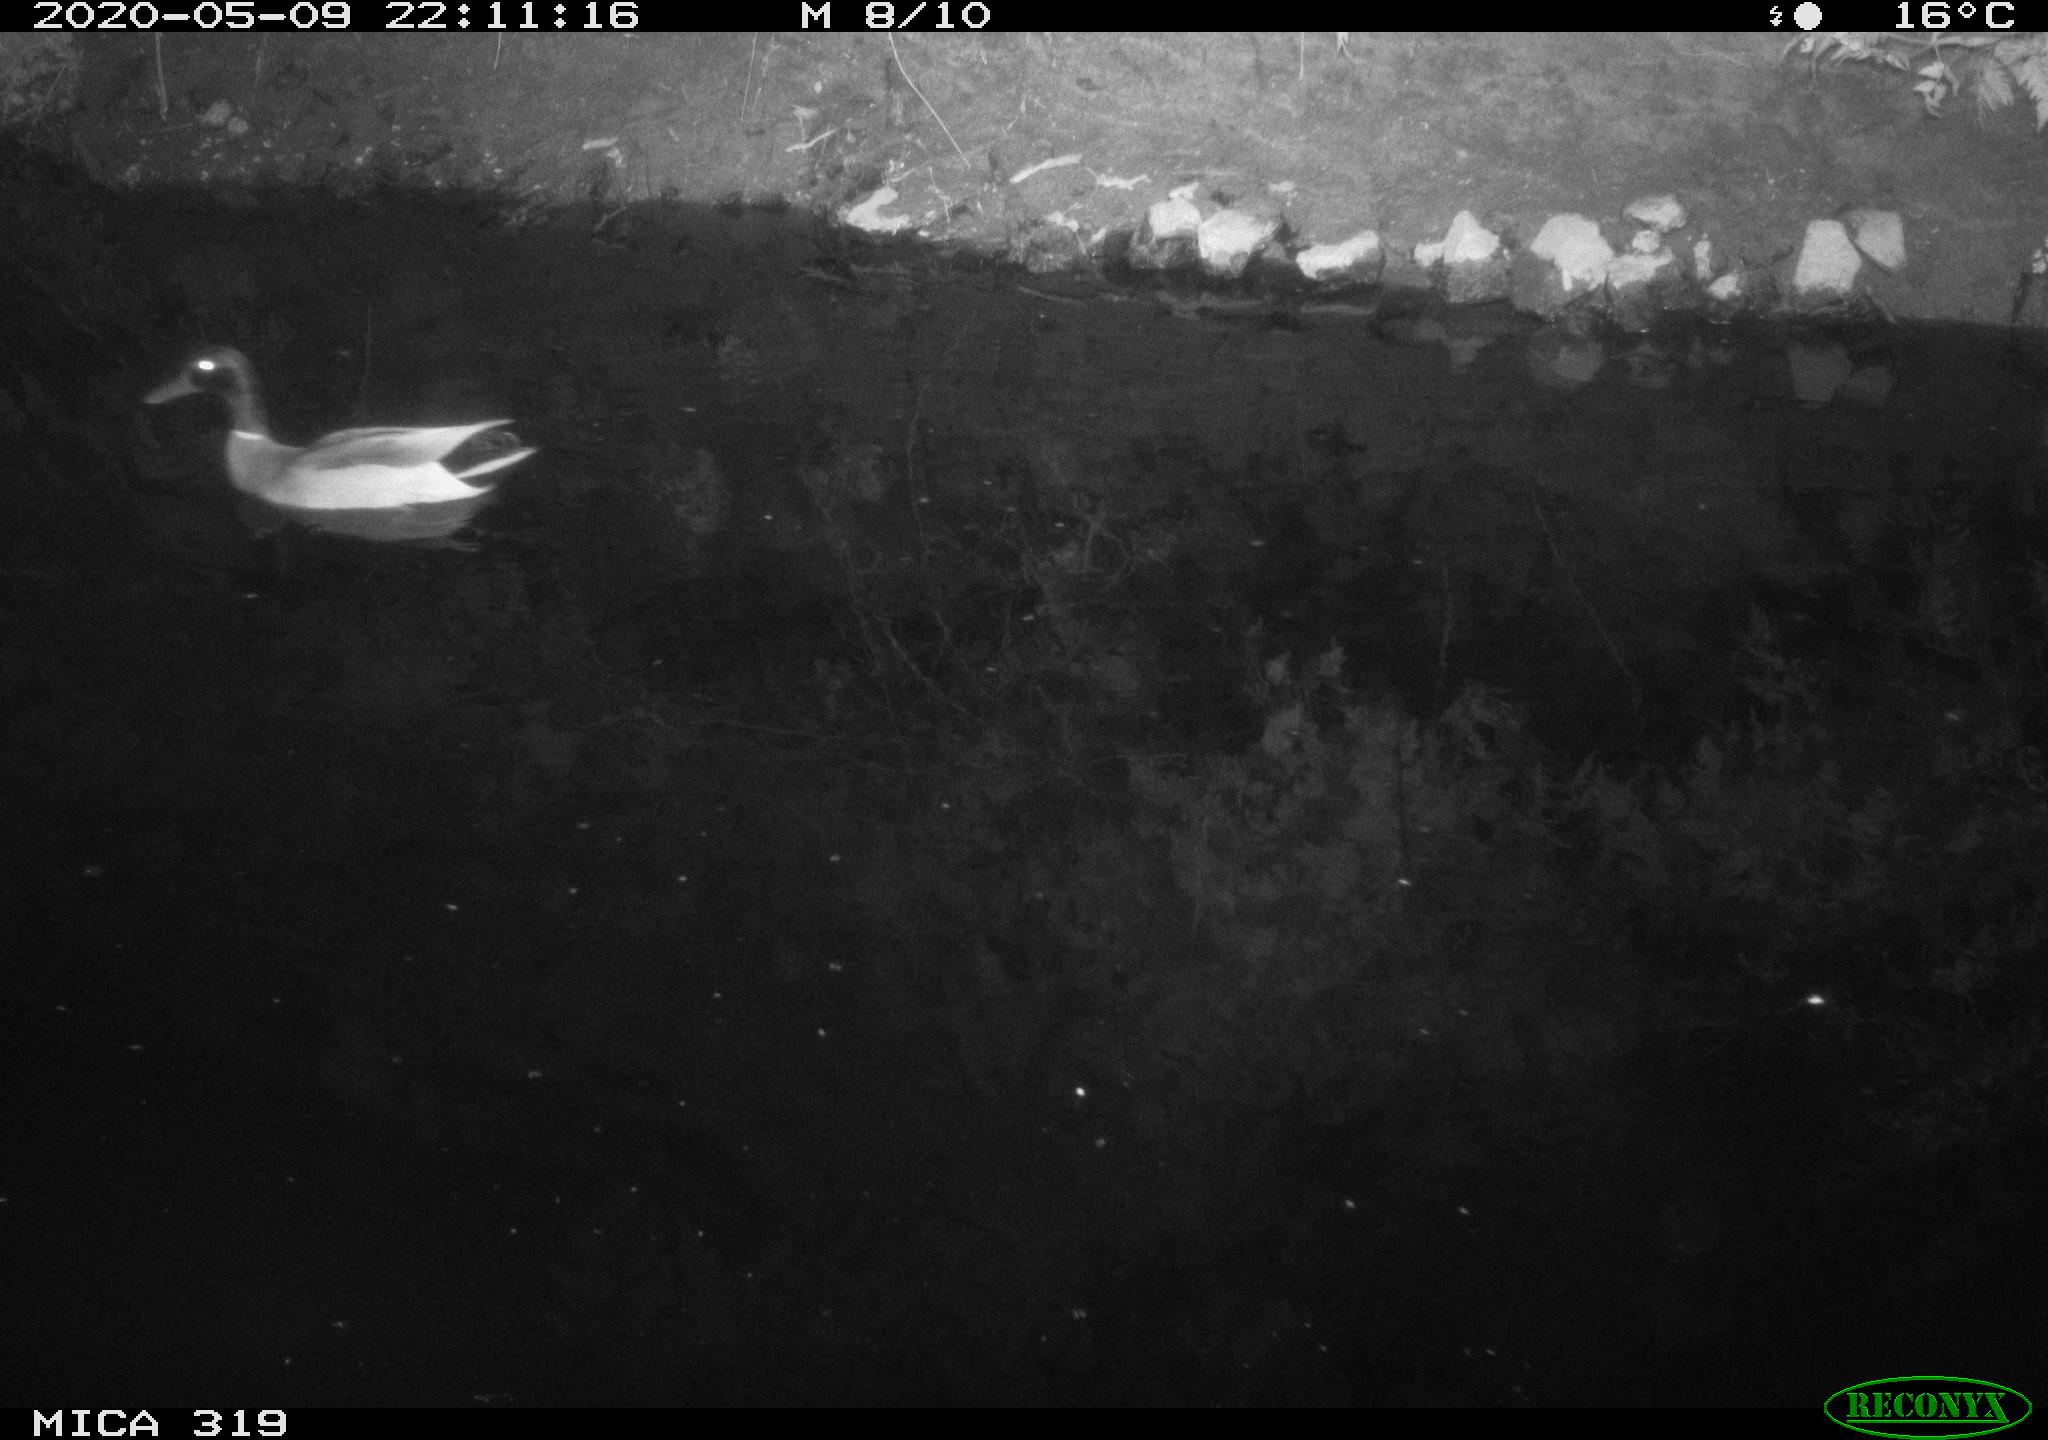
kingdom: Animalia
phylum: Chordata
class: Aves
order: Anseriformes
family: Anatidae
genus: Anas
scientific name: Anas platyrhynchos
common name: Mallard
